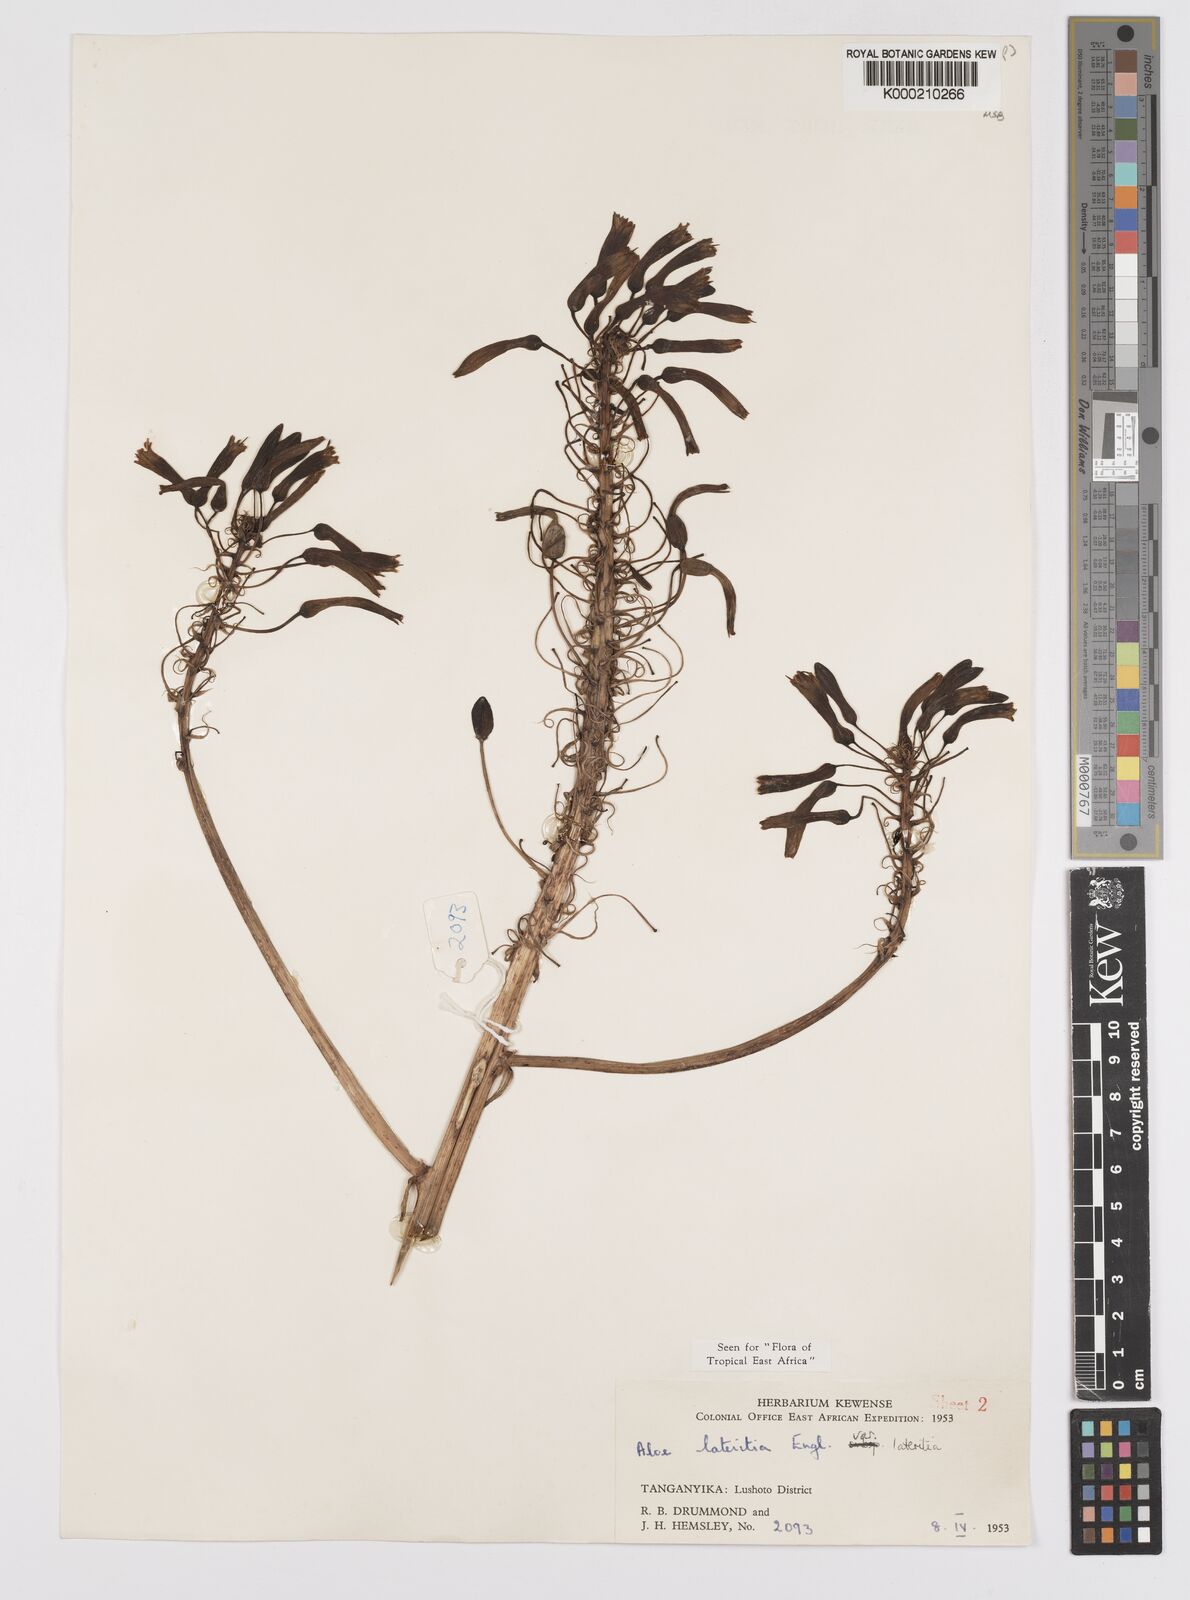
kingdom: Plantae
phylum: Tracheophyta
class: Liliopsida
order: Asparagales
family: Asphodelaceae
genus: Aloe
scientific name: Aloe lateritia
